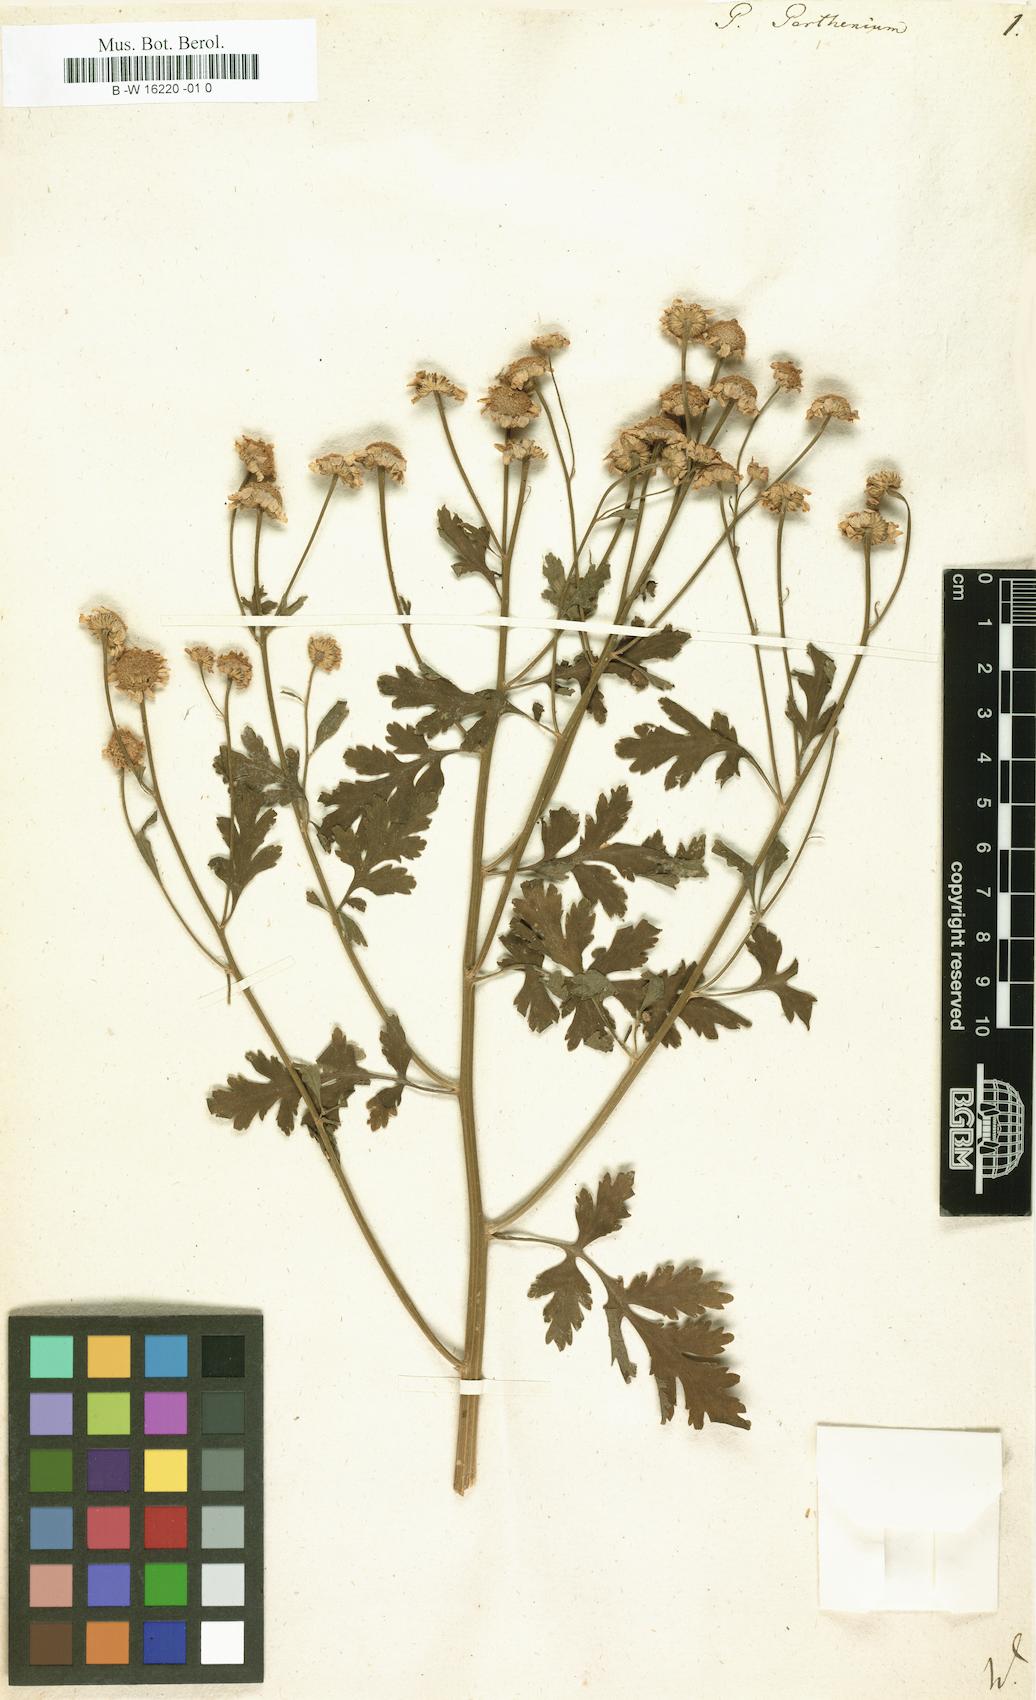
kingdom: Plantae
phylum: Tracheophyta
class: Magnoliopsida
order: Asterales
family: Asteraceae
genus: Tanacetum
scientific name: Tanacetum parthenium
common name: Feverfew
